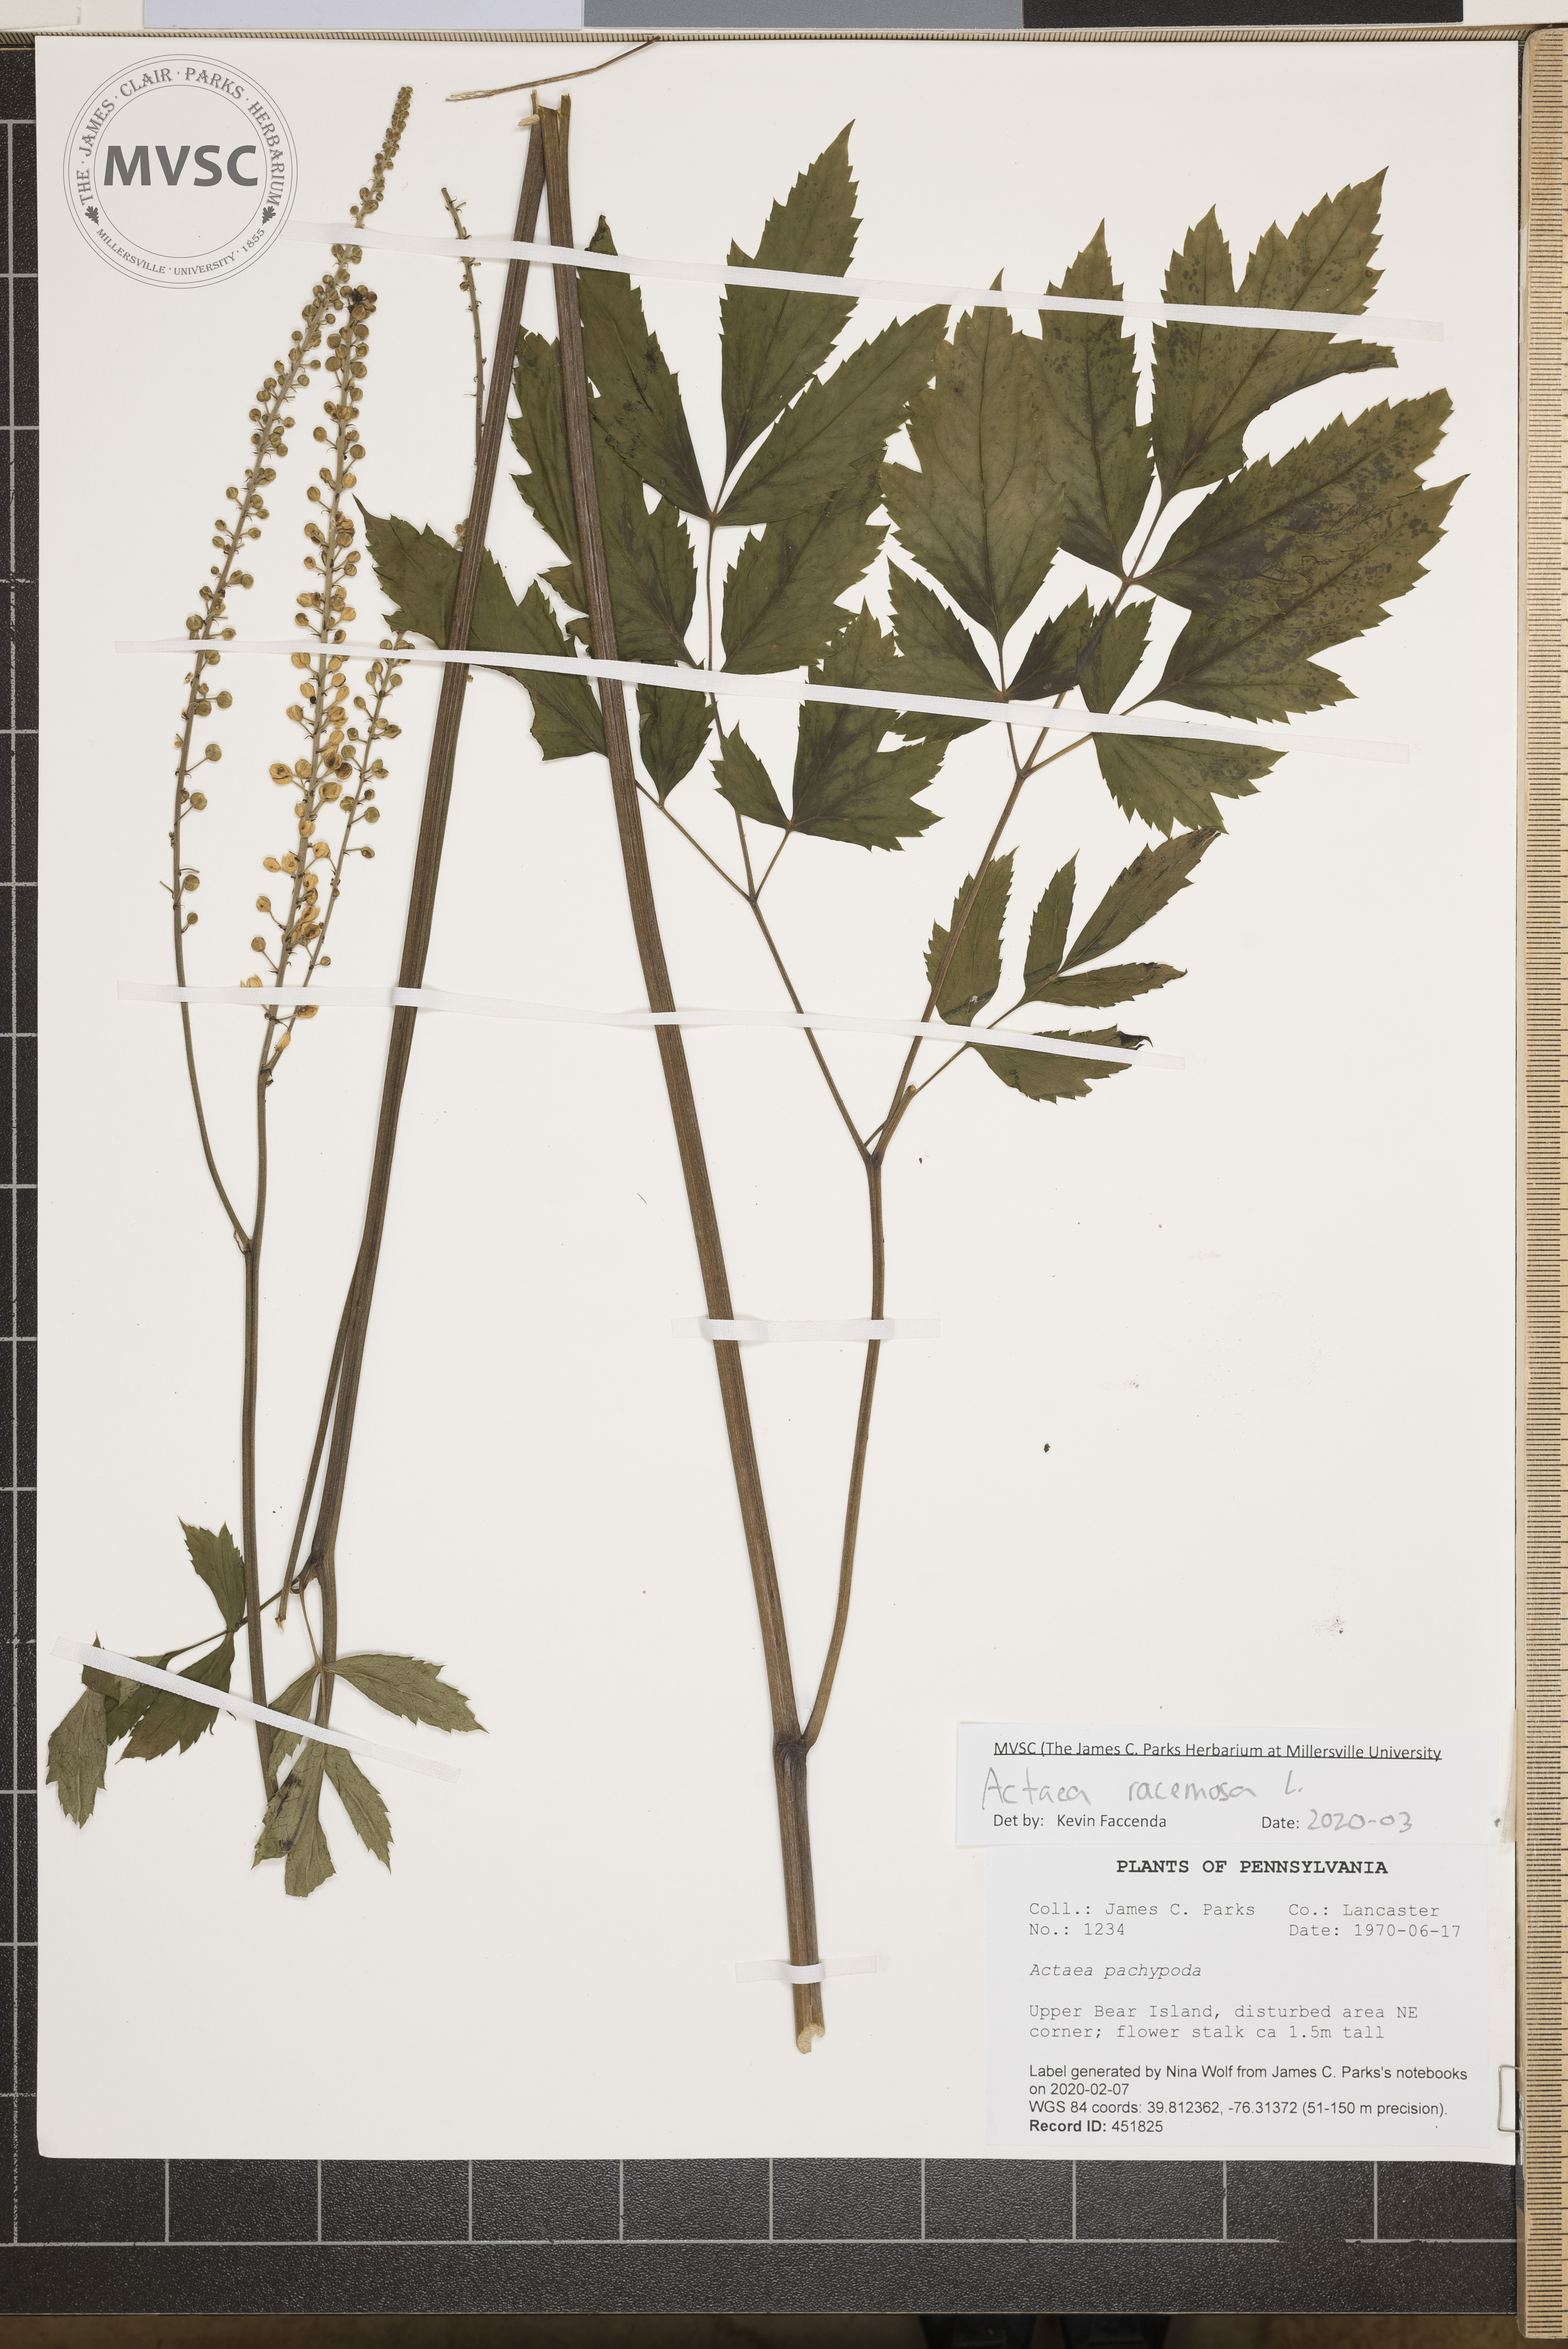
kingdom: Plantae
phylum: Tracheophyta
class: Magnoliopsida
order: Ranunculales
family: Ranunculaceae
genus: Actaea
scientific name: Actaea racemosa
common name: Black cohosh
